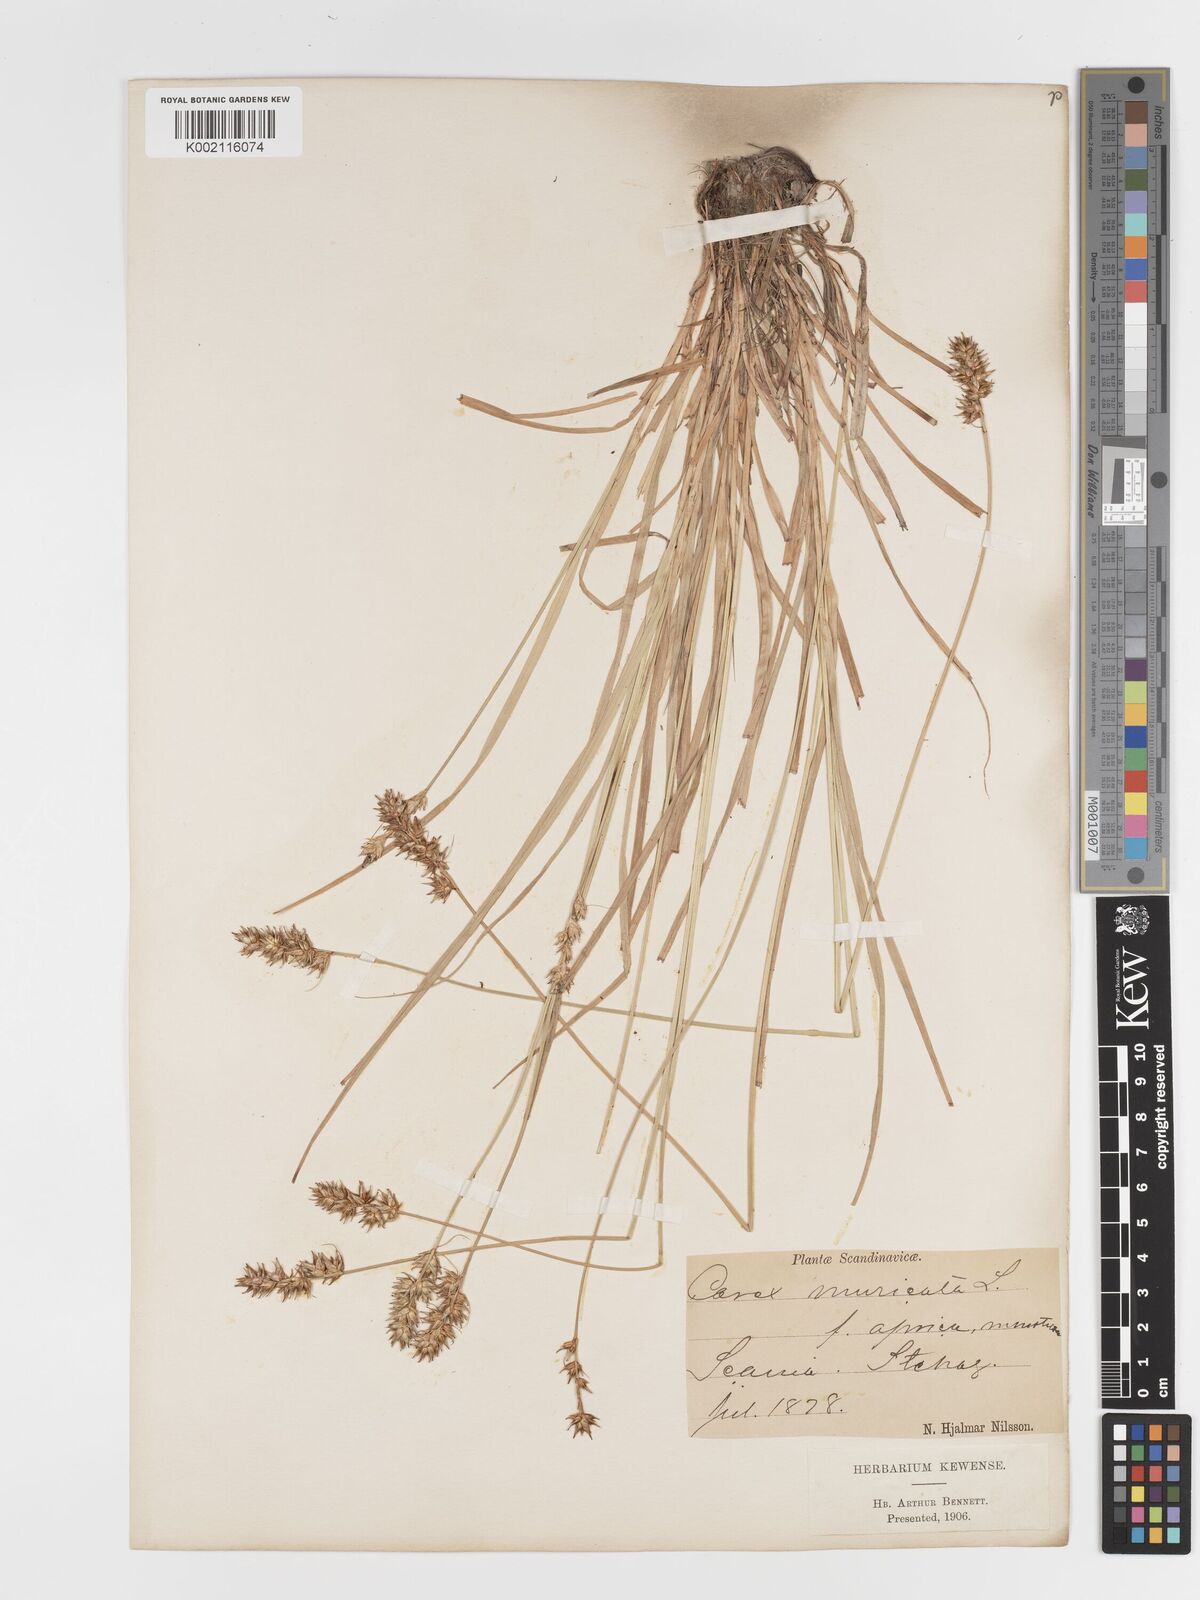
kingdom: Plantae
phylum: Tracheophyta
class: Liliopsida
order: Poales
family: Cyperaceae
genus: Carex
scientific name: Carex spicata
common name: Spiked sedge
